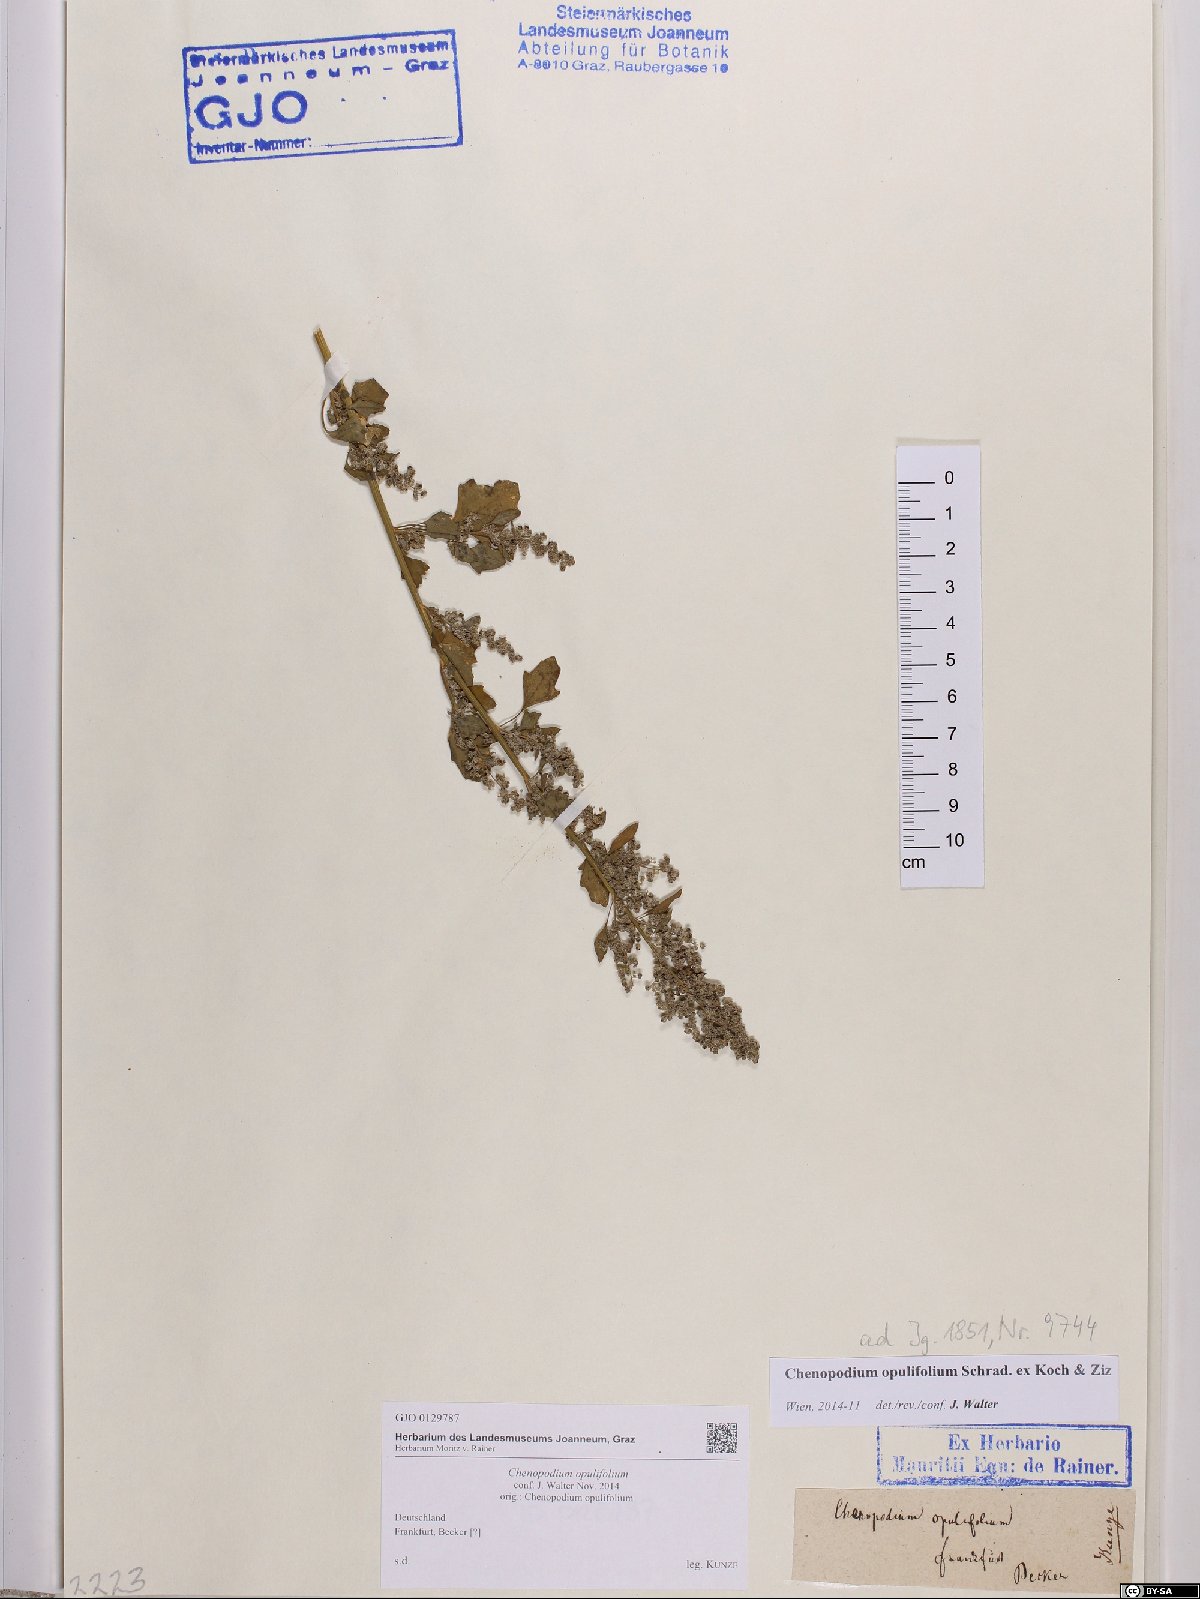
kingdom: Plantae
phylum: Tracheophyta
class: Magnoliopsida
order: Caryophyllales
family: Amaranthaceae
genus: Chenopodium
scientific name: Chenopodium opulifolium
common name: Grey goosefoot
